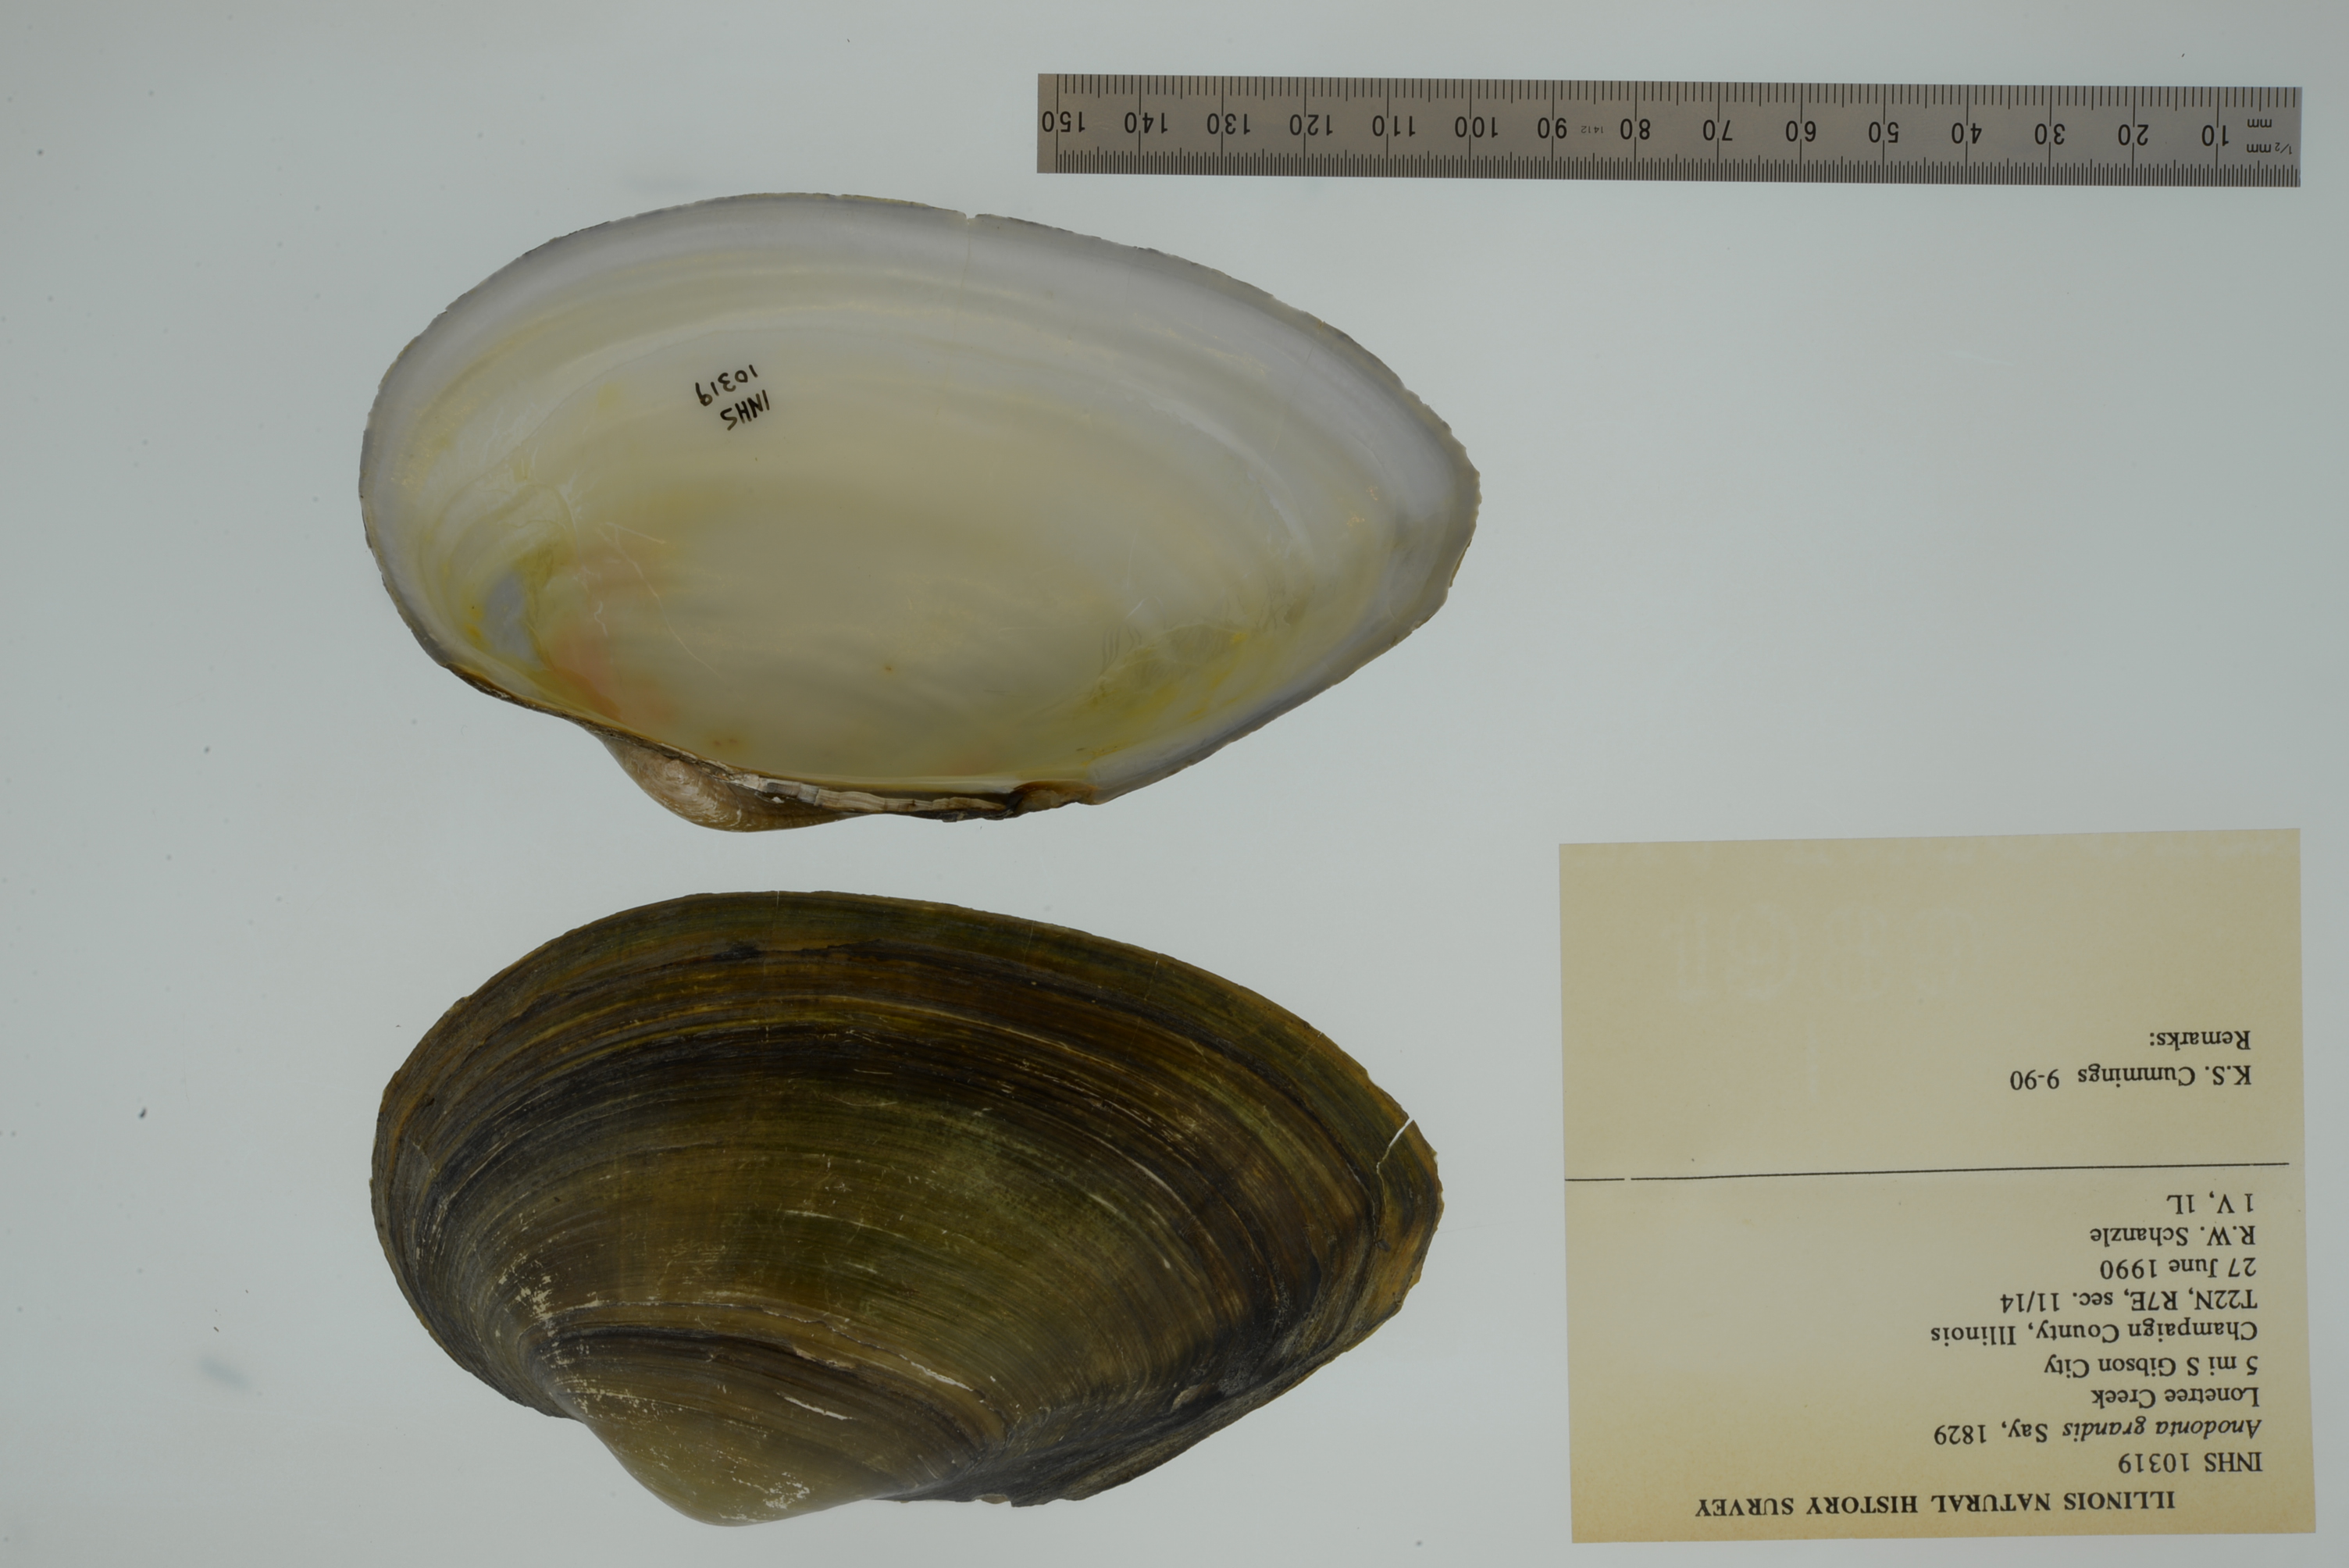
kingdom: Animalia
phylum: Mollusca
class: Bivalvia
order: Unionida
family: Unionidae
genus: Pyganodon
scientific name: Pyganodon grandis
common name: Giant floater
